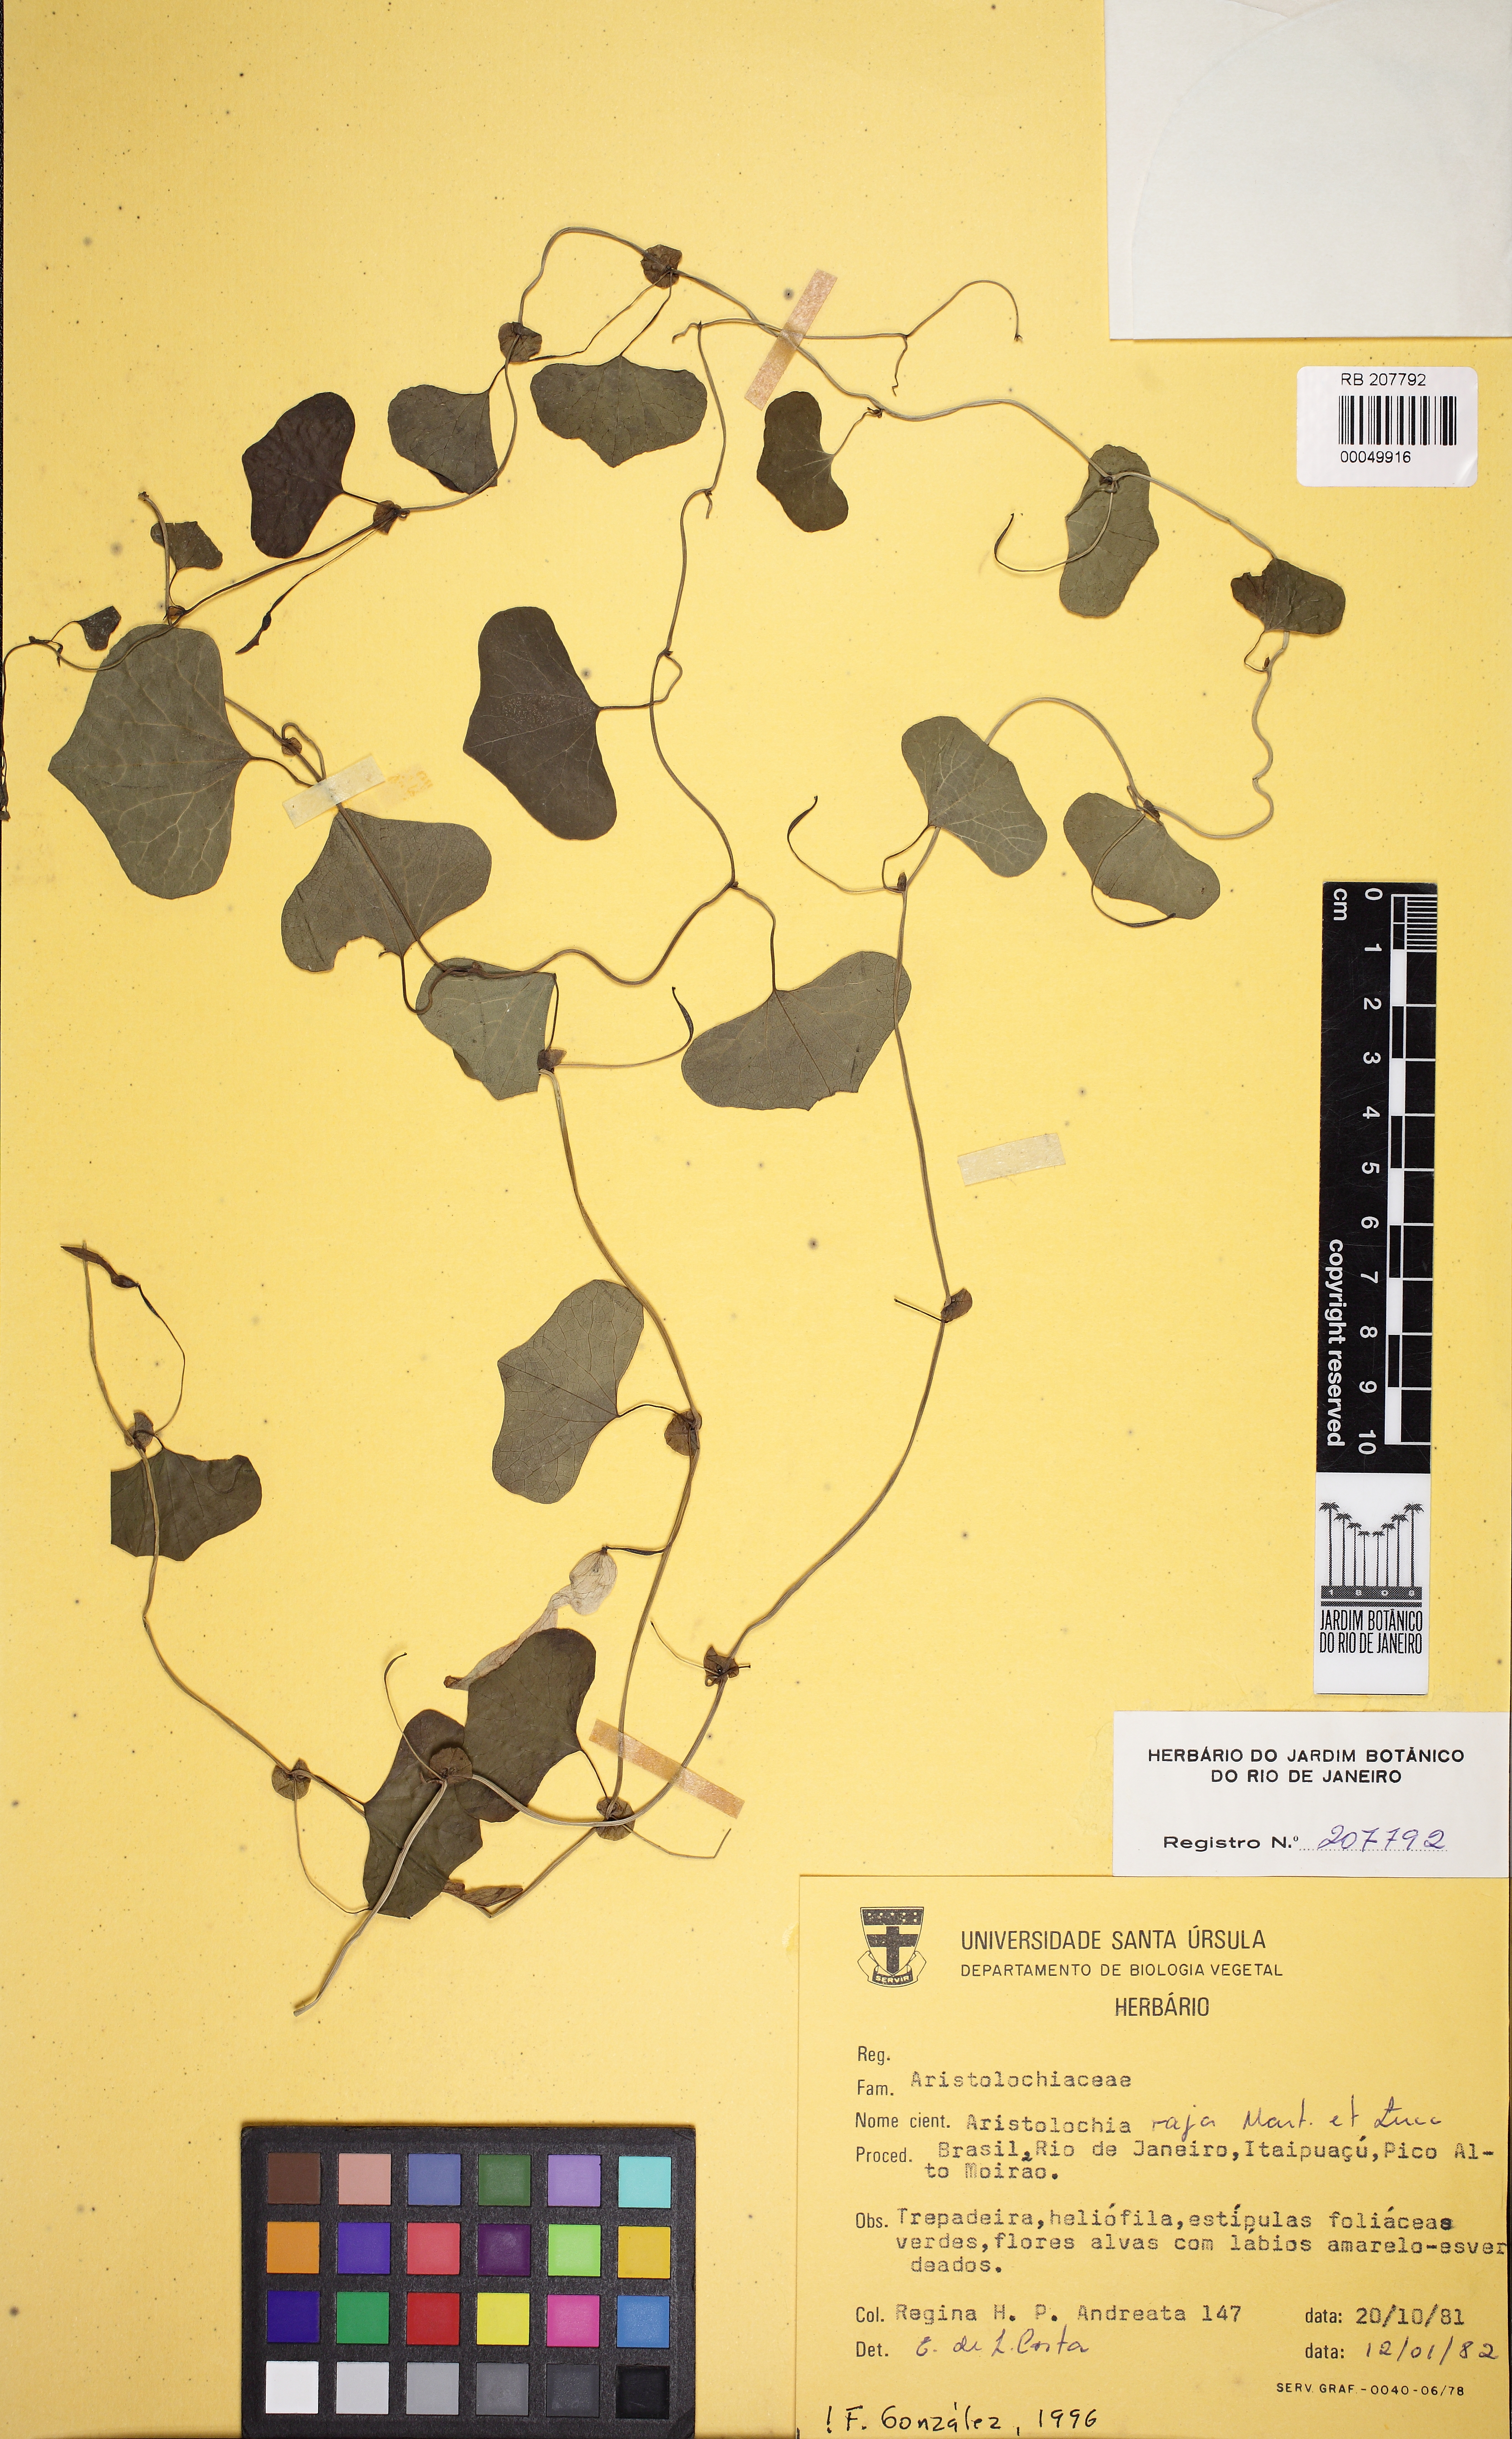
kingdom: Plantae
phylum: Tracheophyta
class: Magnoliopsida
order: Piperales
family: Aristolochiaceae
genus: Aristolochia
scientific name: Aristolochia raja
